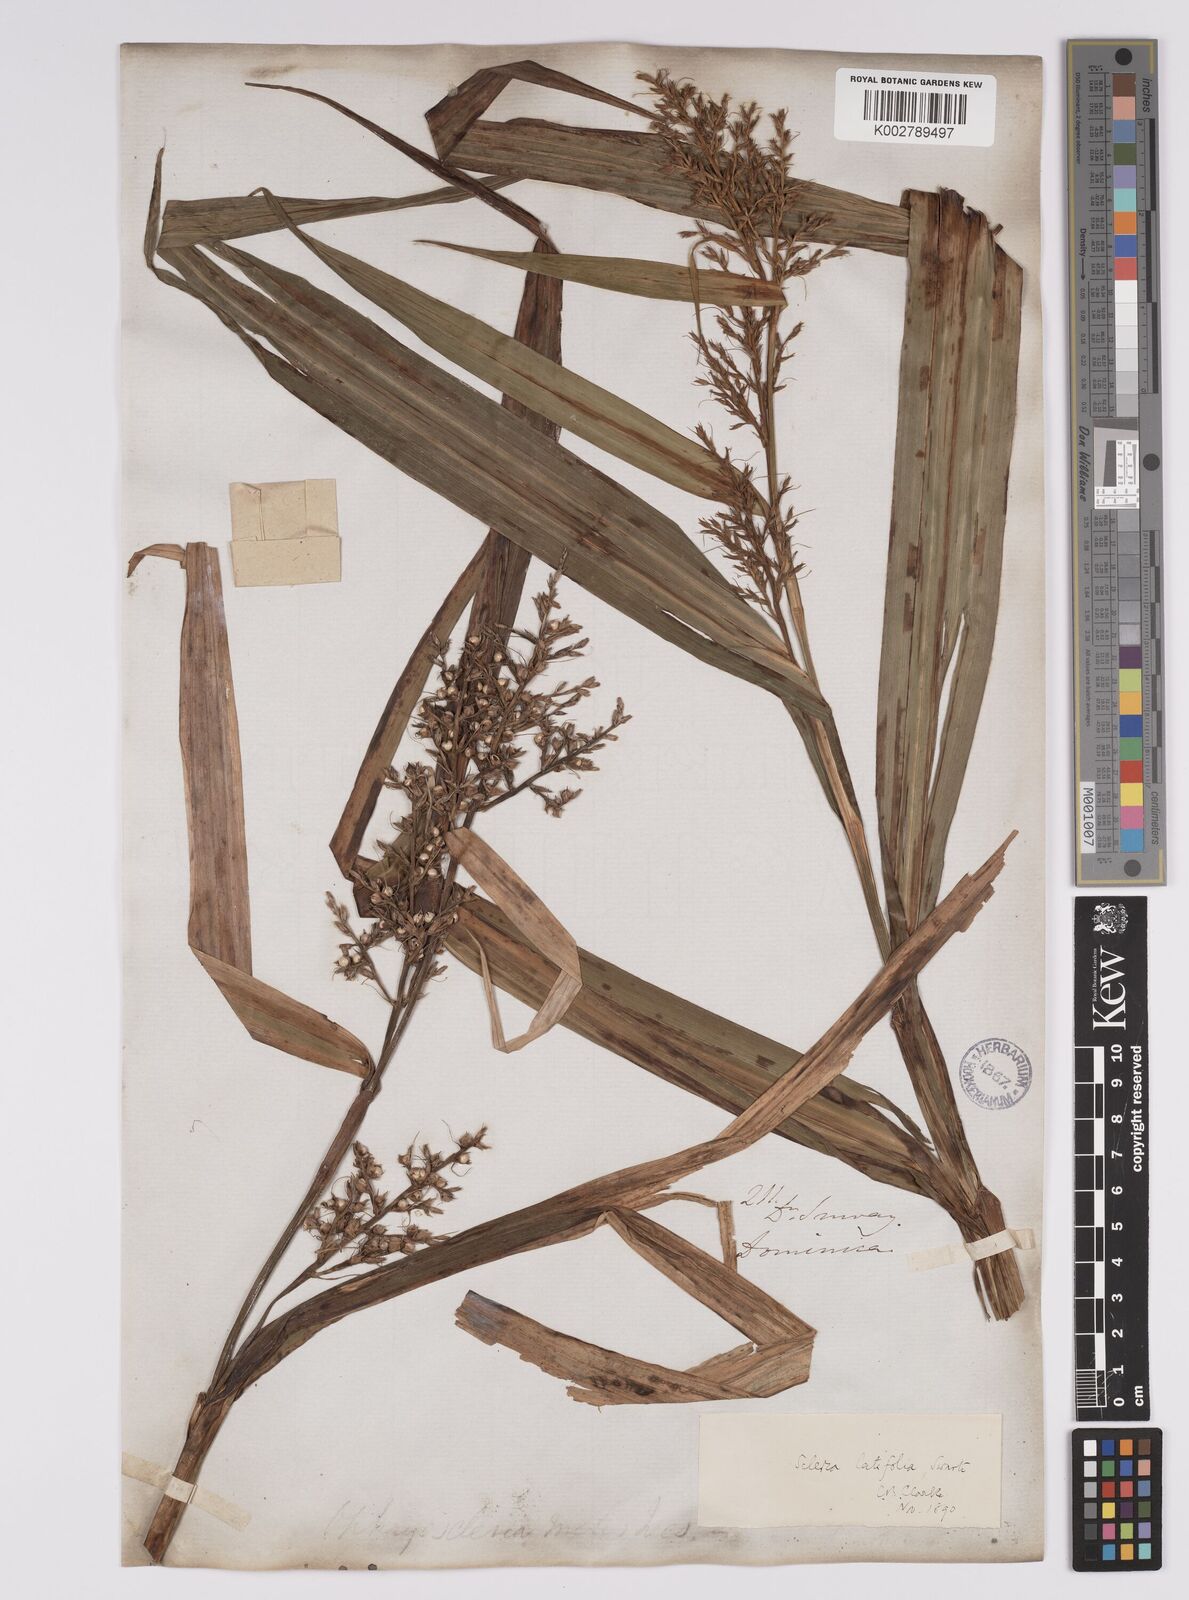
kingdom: Plantae
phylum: Tracheophyta
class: Liliopsida
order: Poales
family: Cyperaceae
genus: Scleria
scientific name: Scleria latifolia
